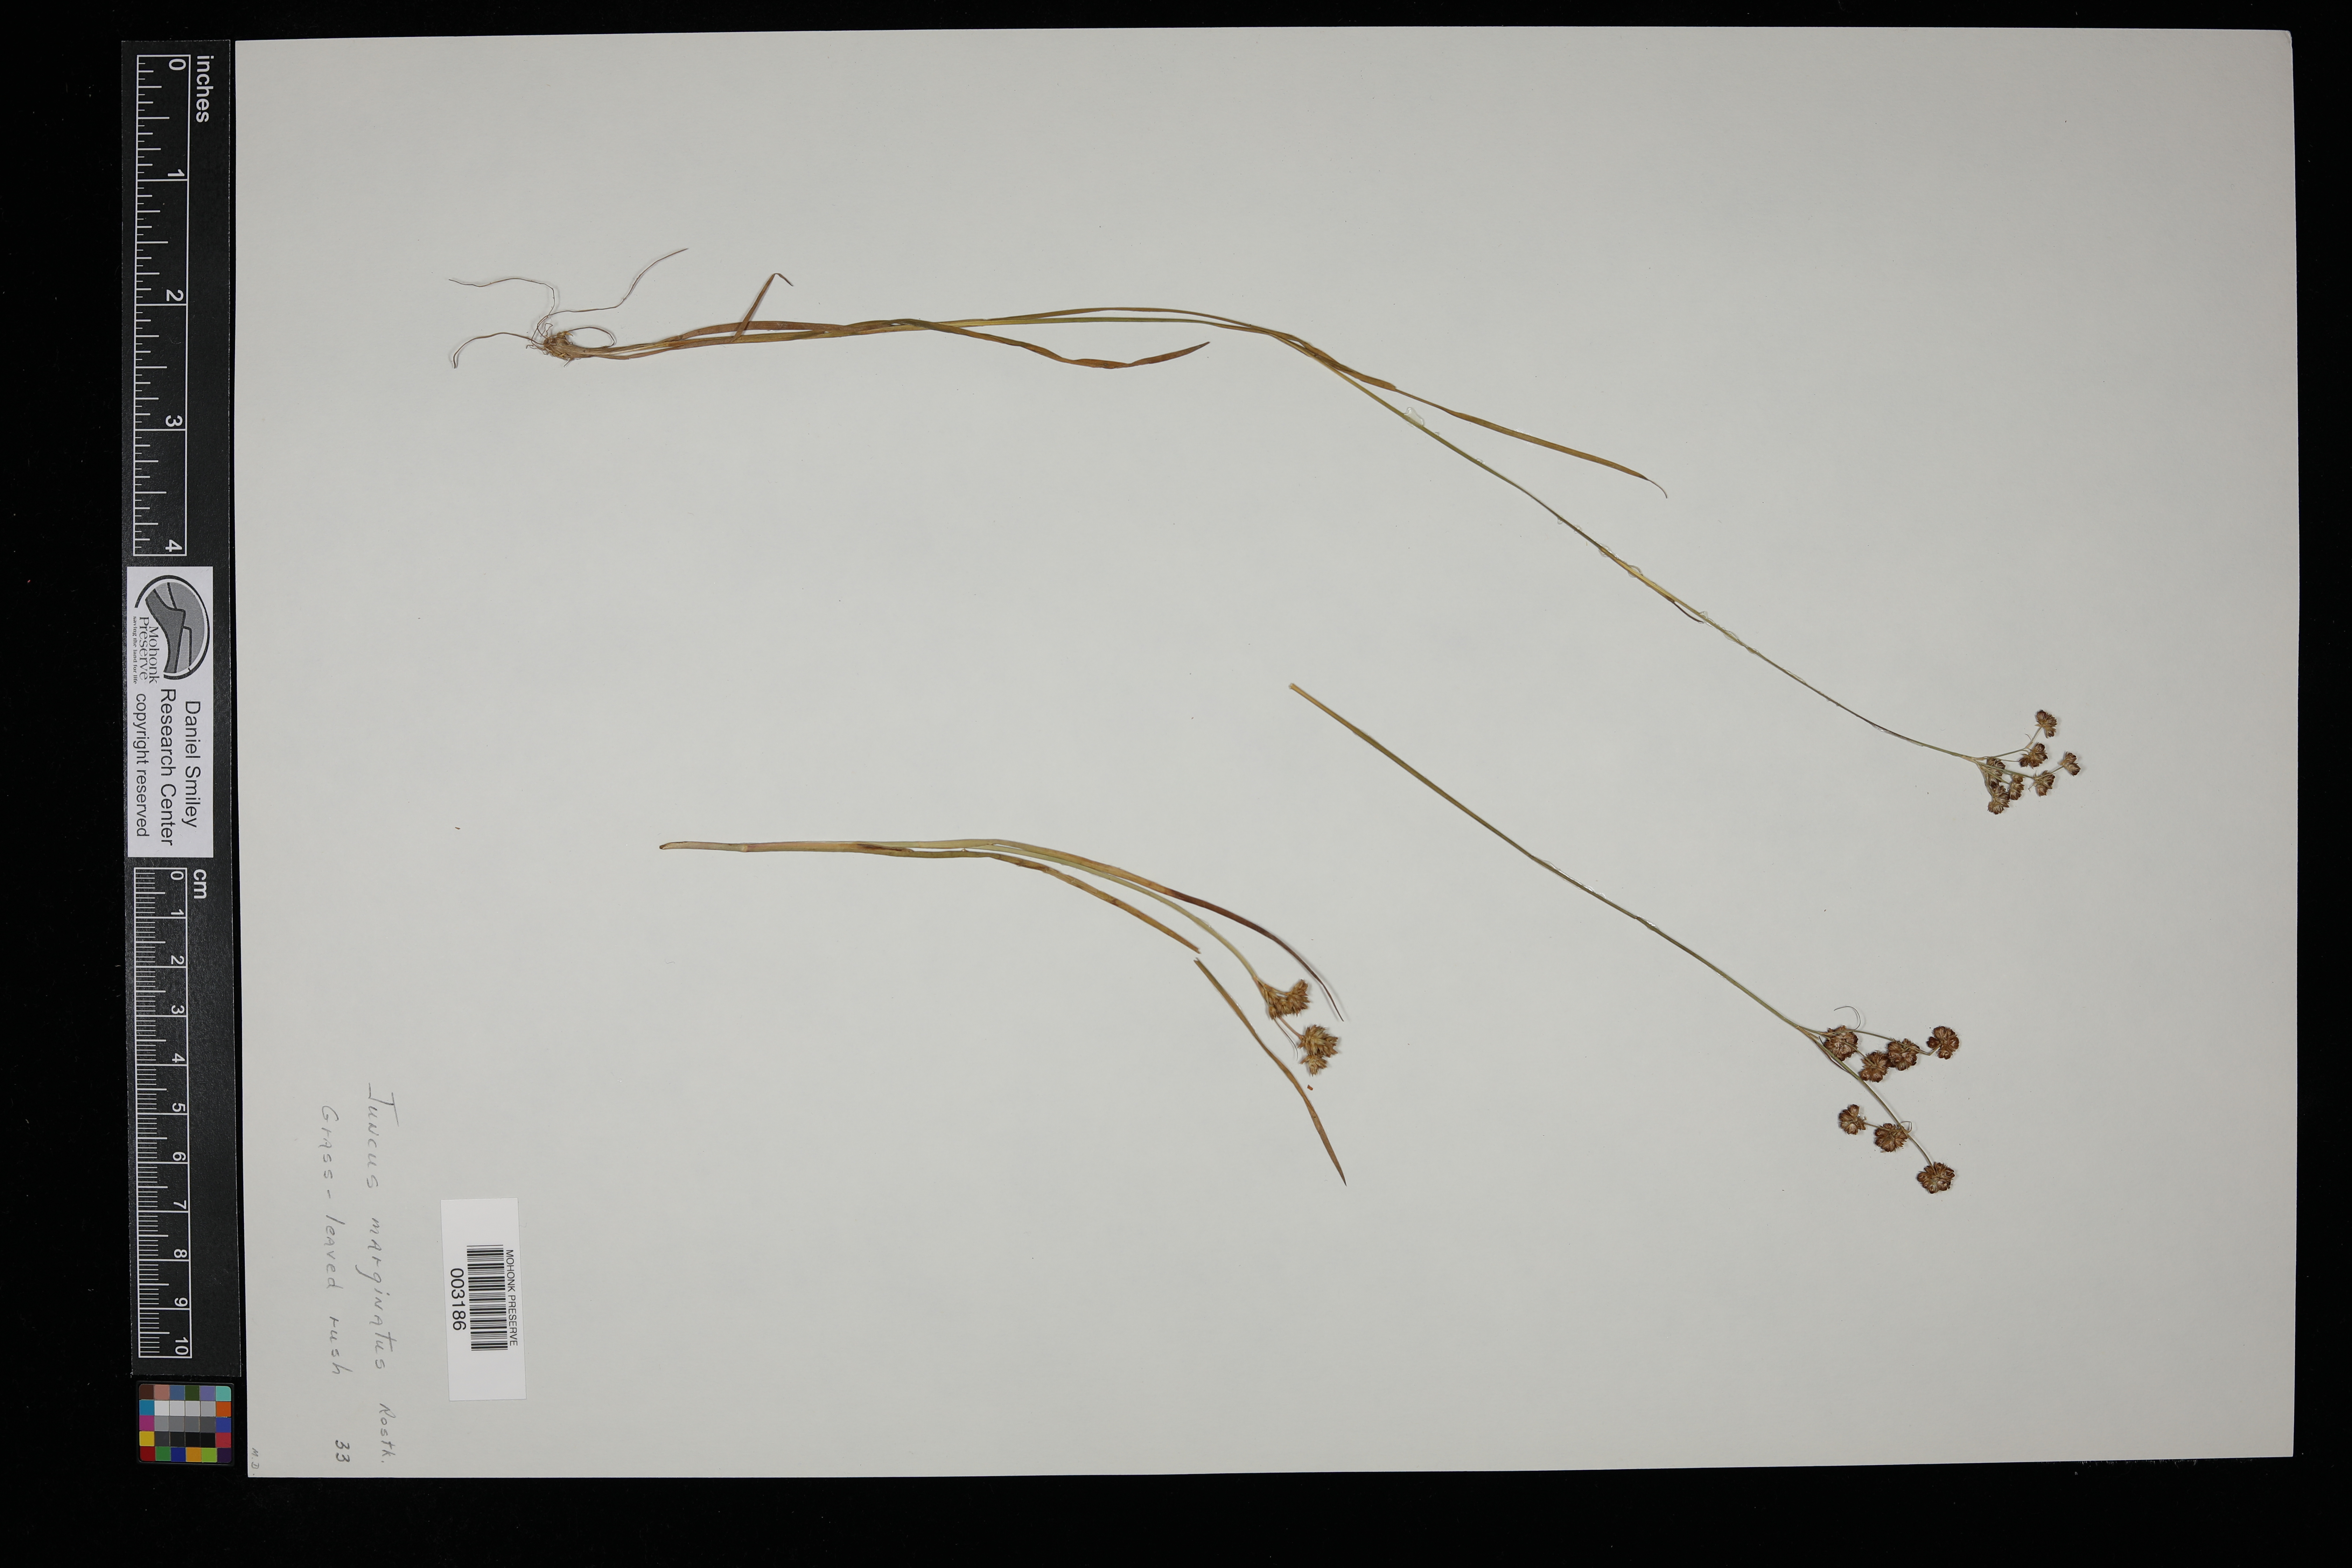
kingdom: Plantae
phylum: Tracheophyta
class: Liliopsida
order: Poales
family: Juncaceae
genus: Juncus
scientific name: Juncus marginatus
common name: Grass-leaf rush
